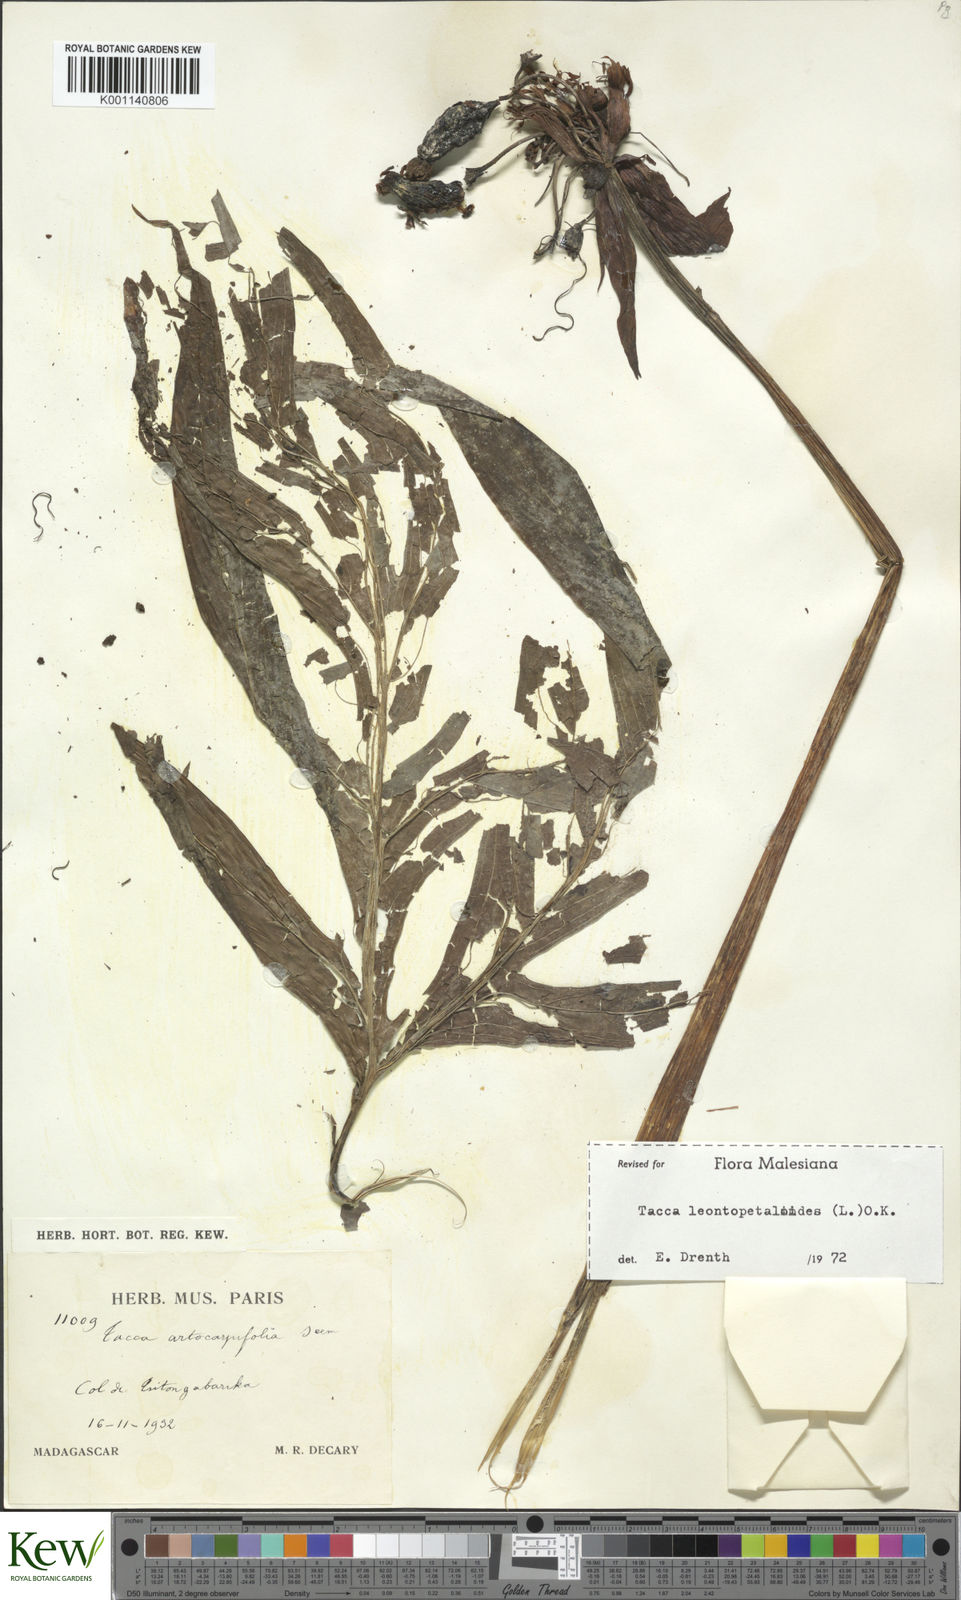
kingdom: Plantae
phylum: Tracheophyta
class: Liliopsida
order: Dioscoreales
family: Dioscoreaceae
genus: Tacca
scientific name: Tacca leontopetaloides
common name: Arrowroot
